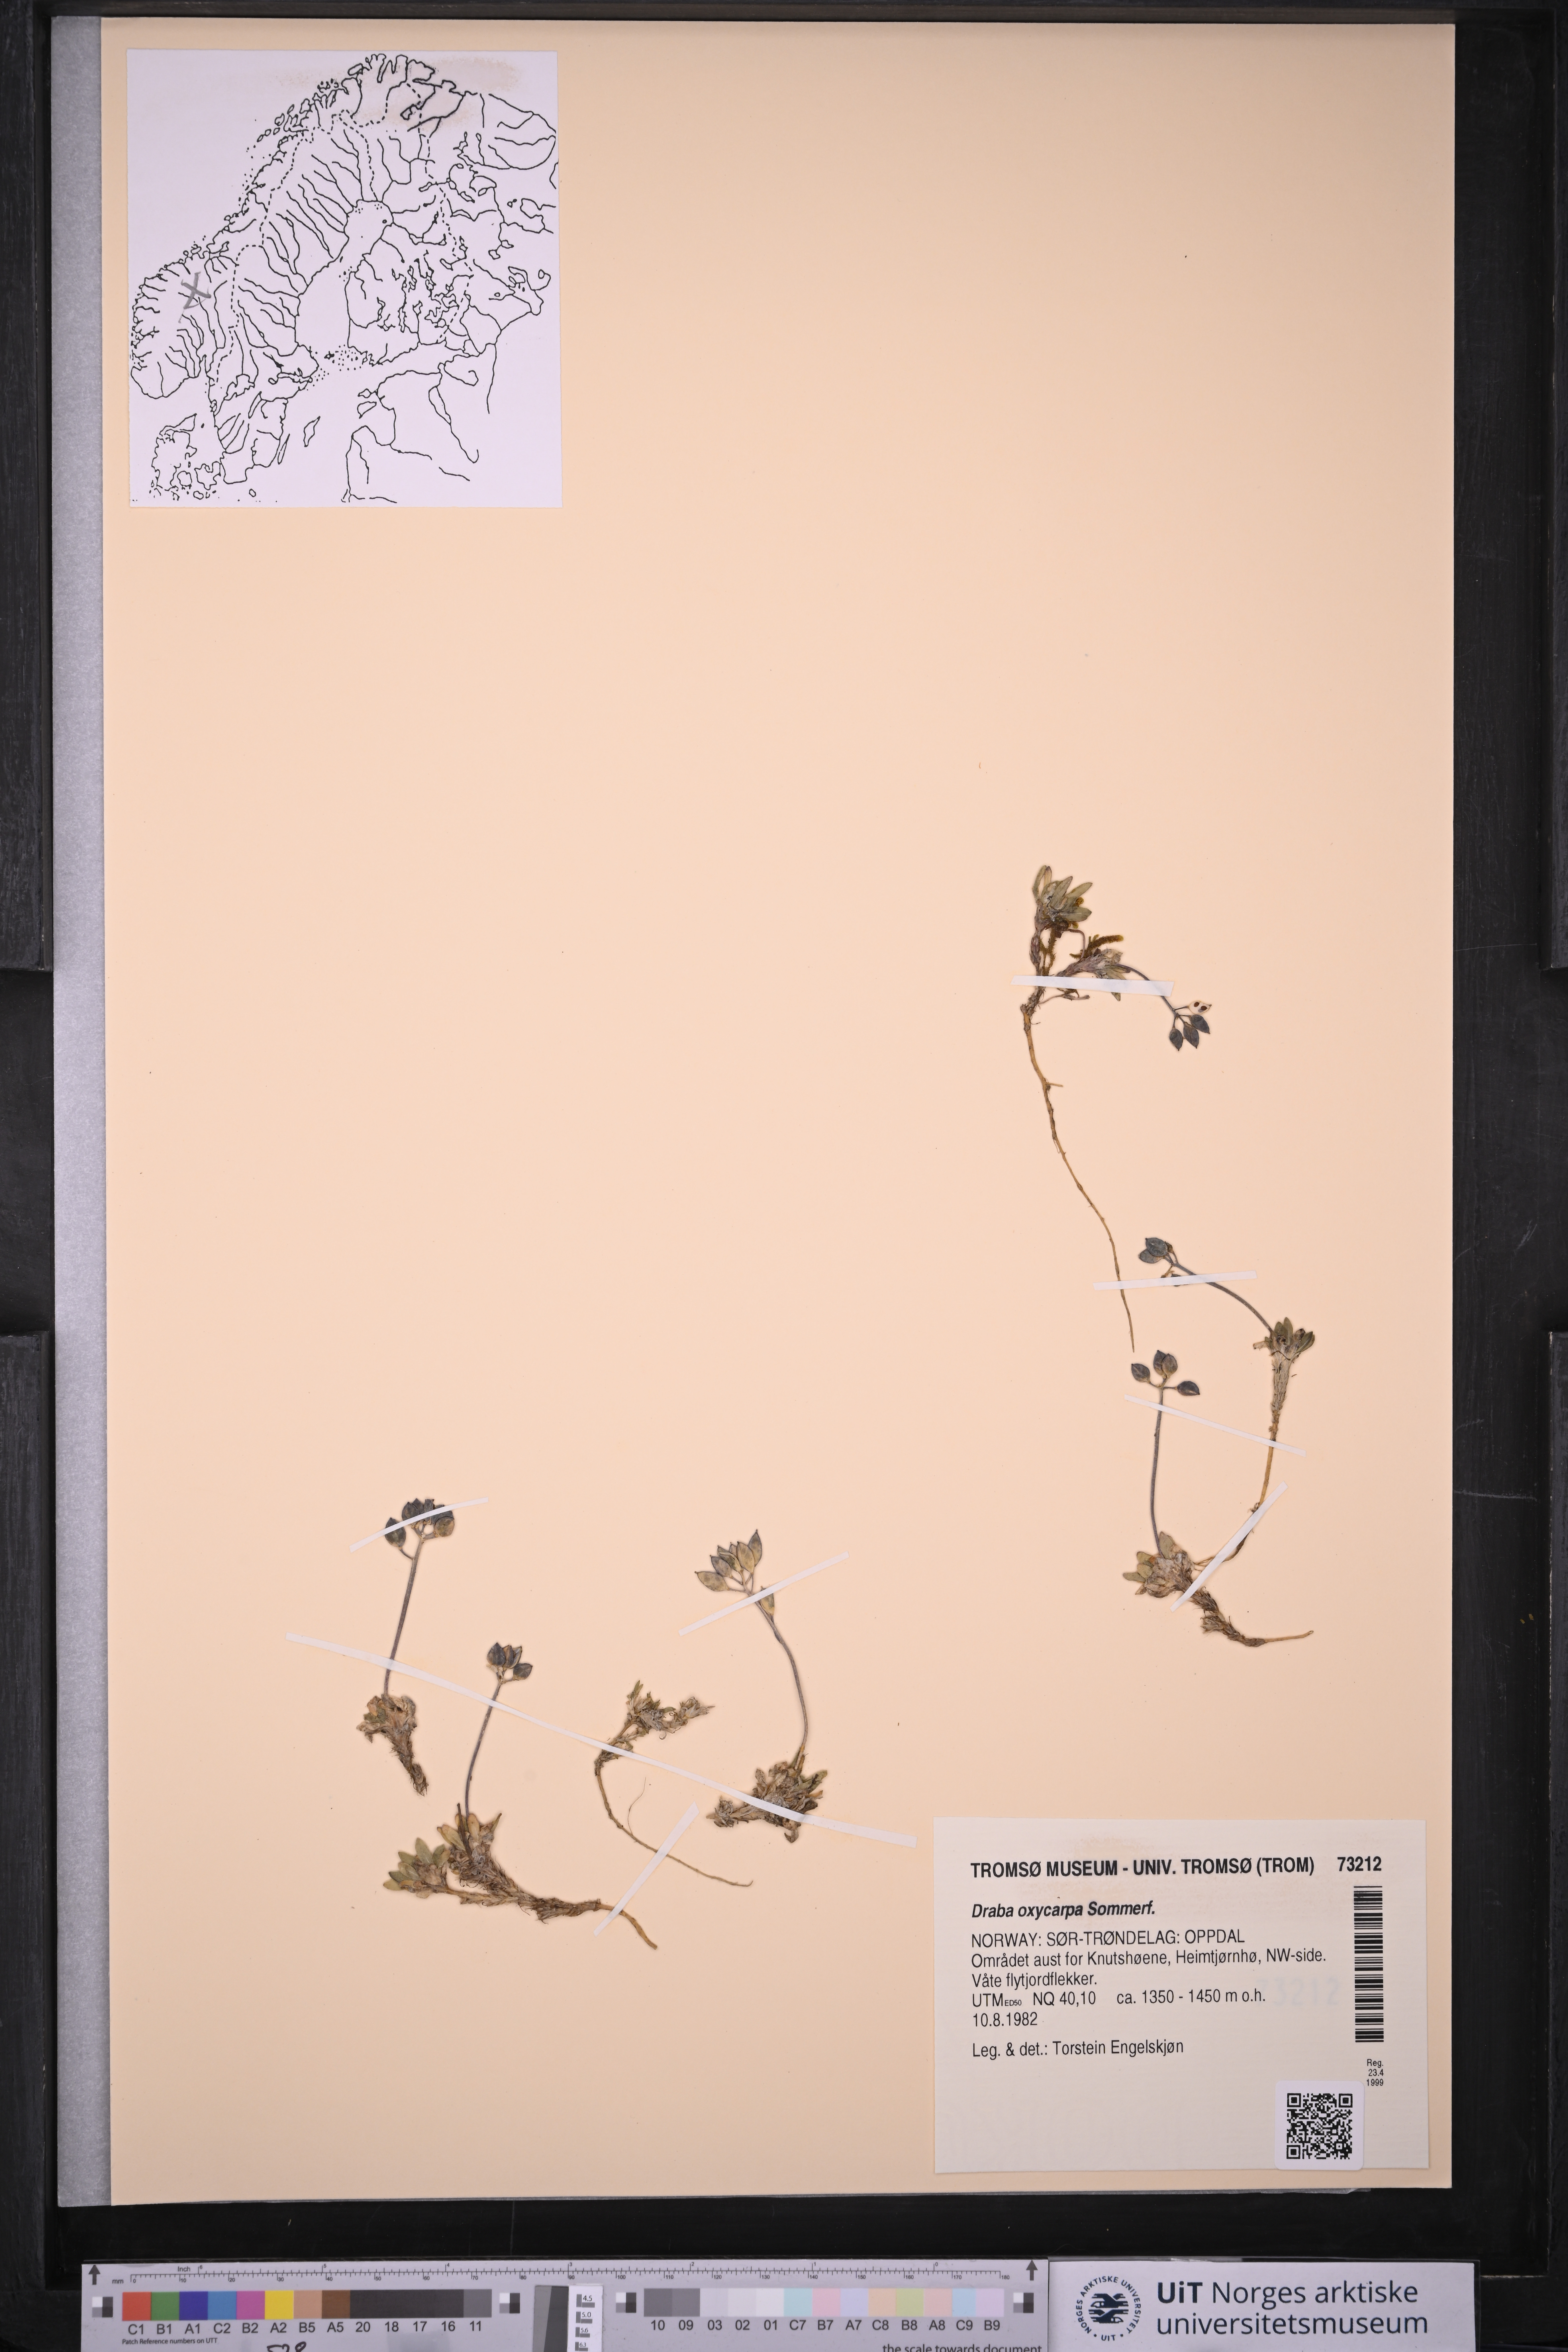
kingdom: Plantae
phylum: Tracheophyta
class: Magnoliopsida
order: Brassicales
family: Brassicaceae
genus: Draba
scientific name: Draba oxycarpa
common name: Sharp-fruited whitlow-grass
